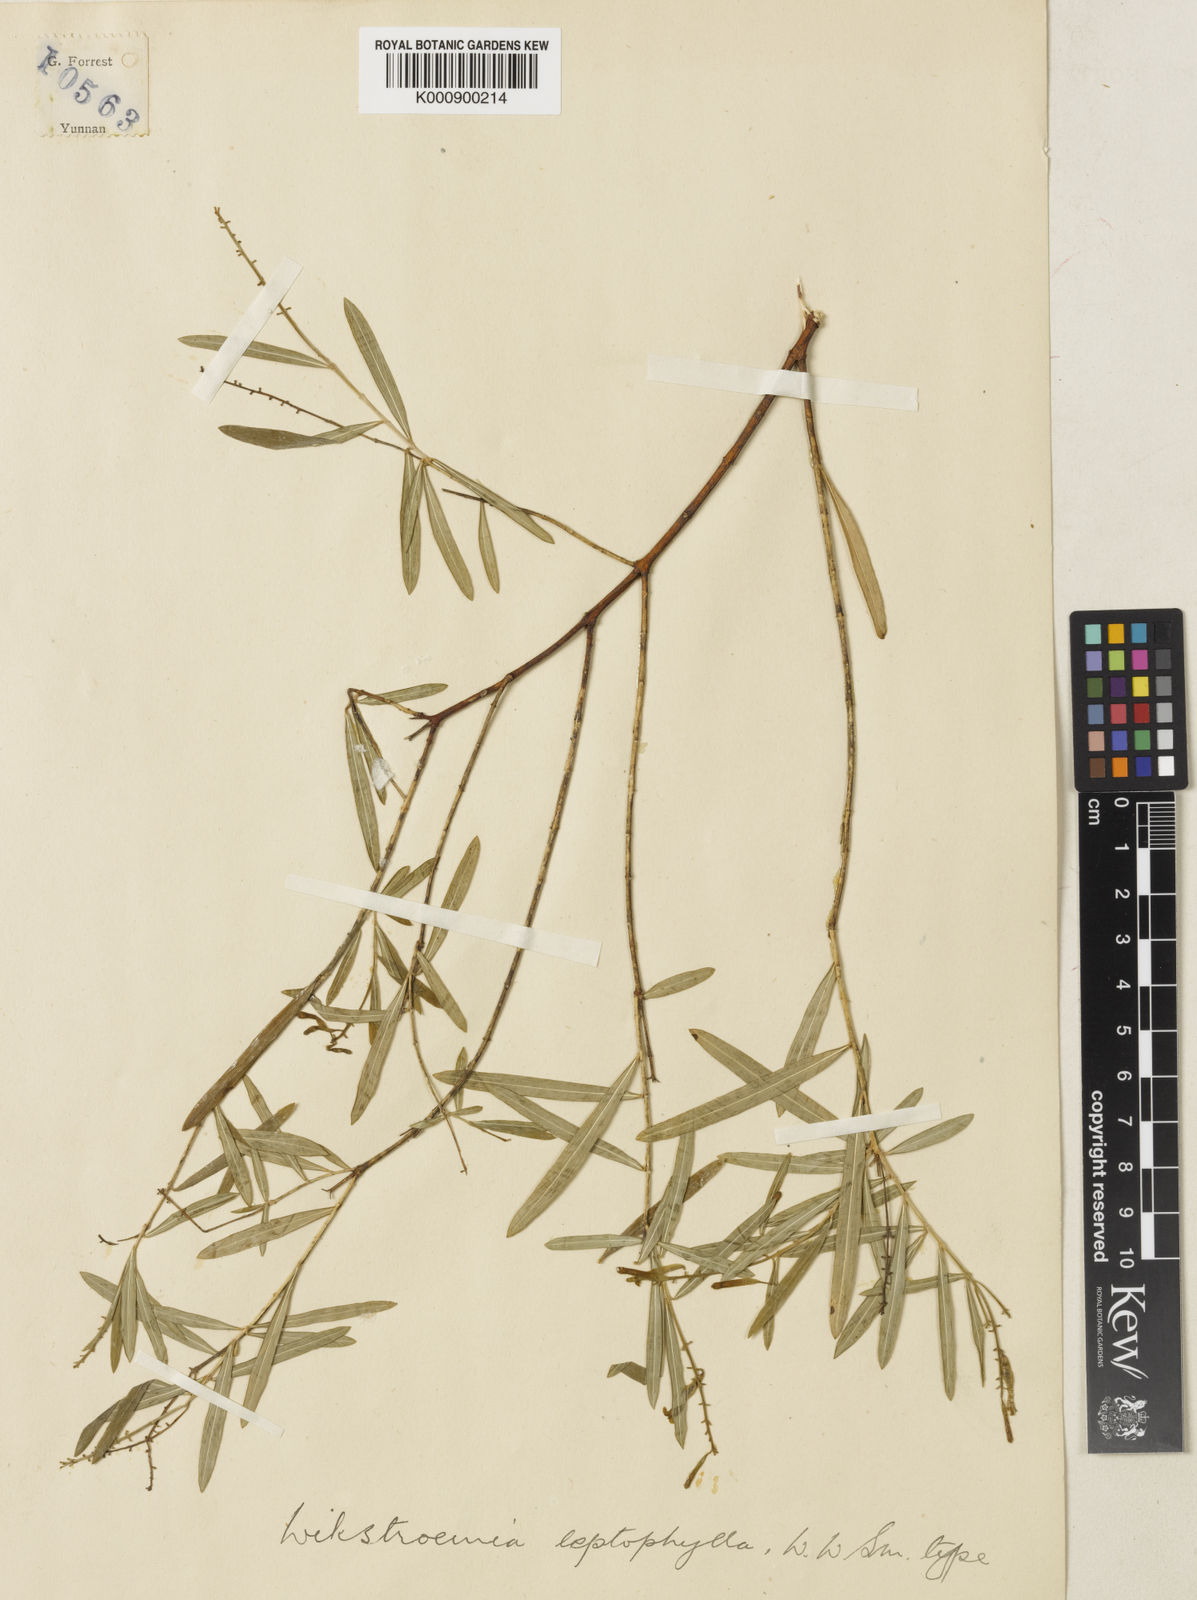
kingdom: Plantae
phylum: Tracheophyta
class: Magnoliopsida
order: Malvales
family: Thymelaeaceae
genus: Wikstroemia
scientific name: Wikstroemia leptophylla
